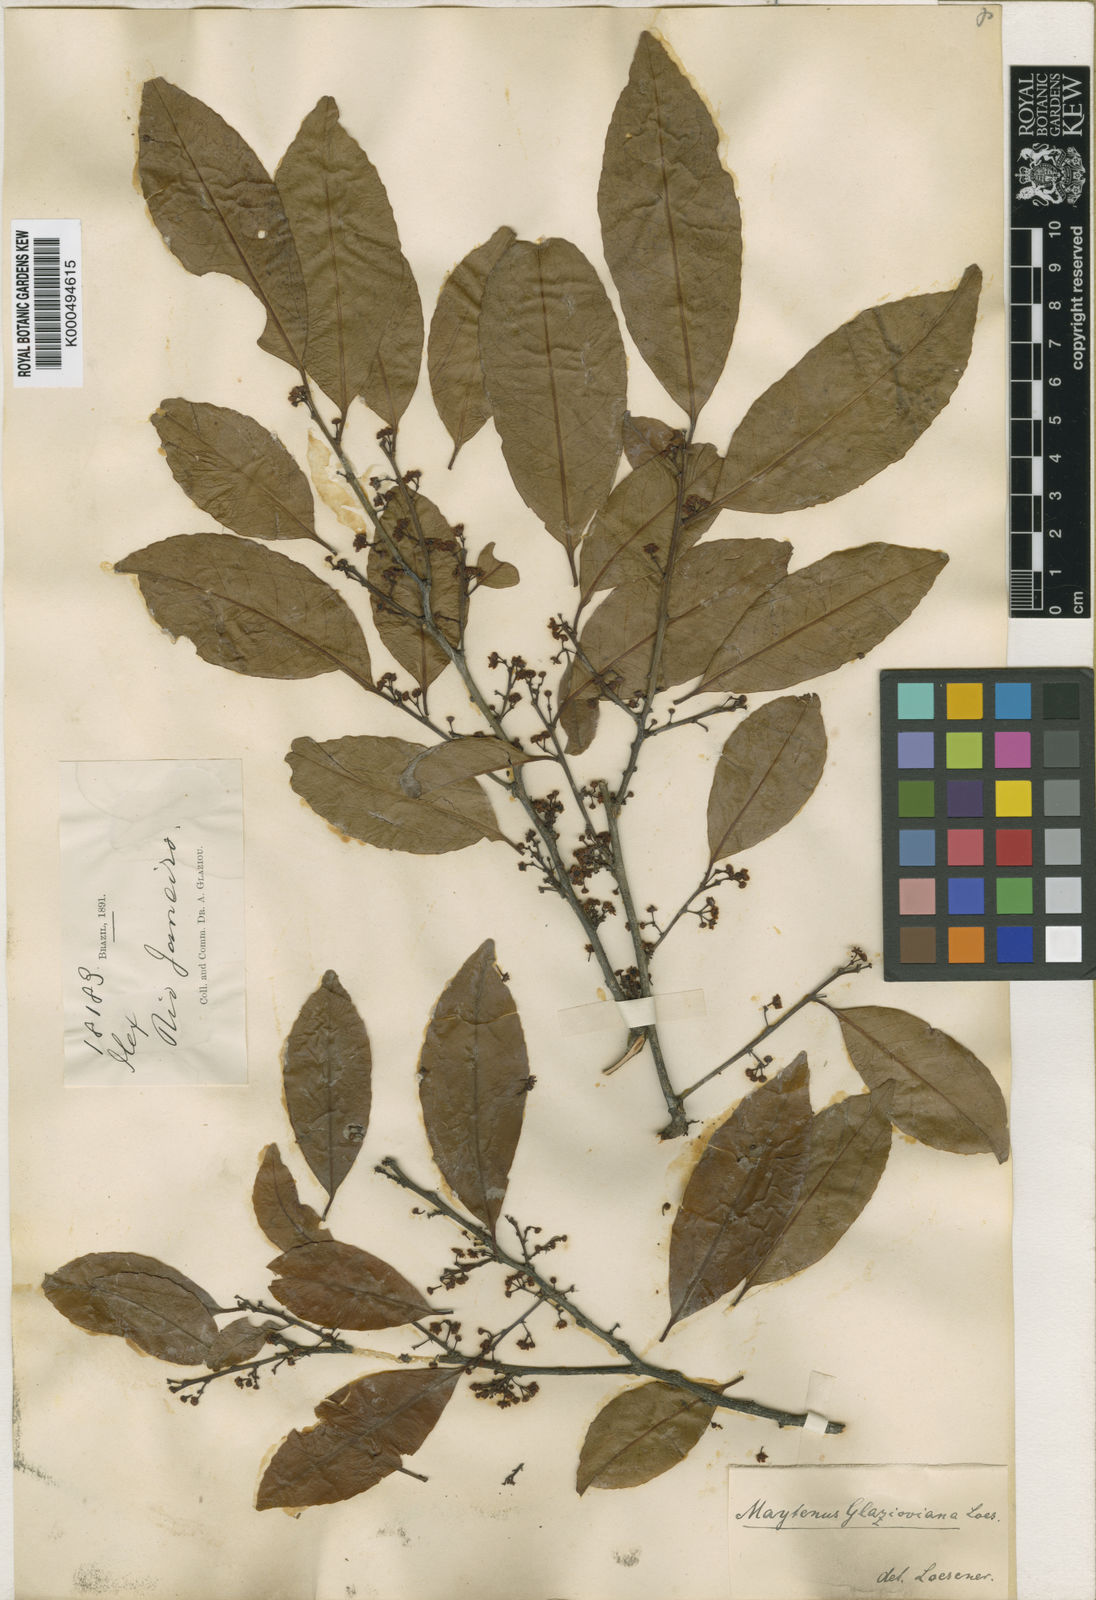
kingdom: Plantae
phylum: Tracheophyta
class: Magnoliopsida
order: Celastrales
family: Celastraceae
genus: Monteverdia
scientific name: Monteverdia communis
